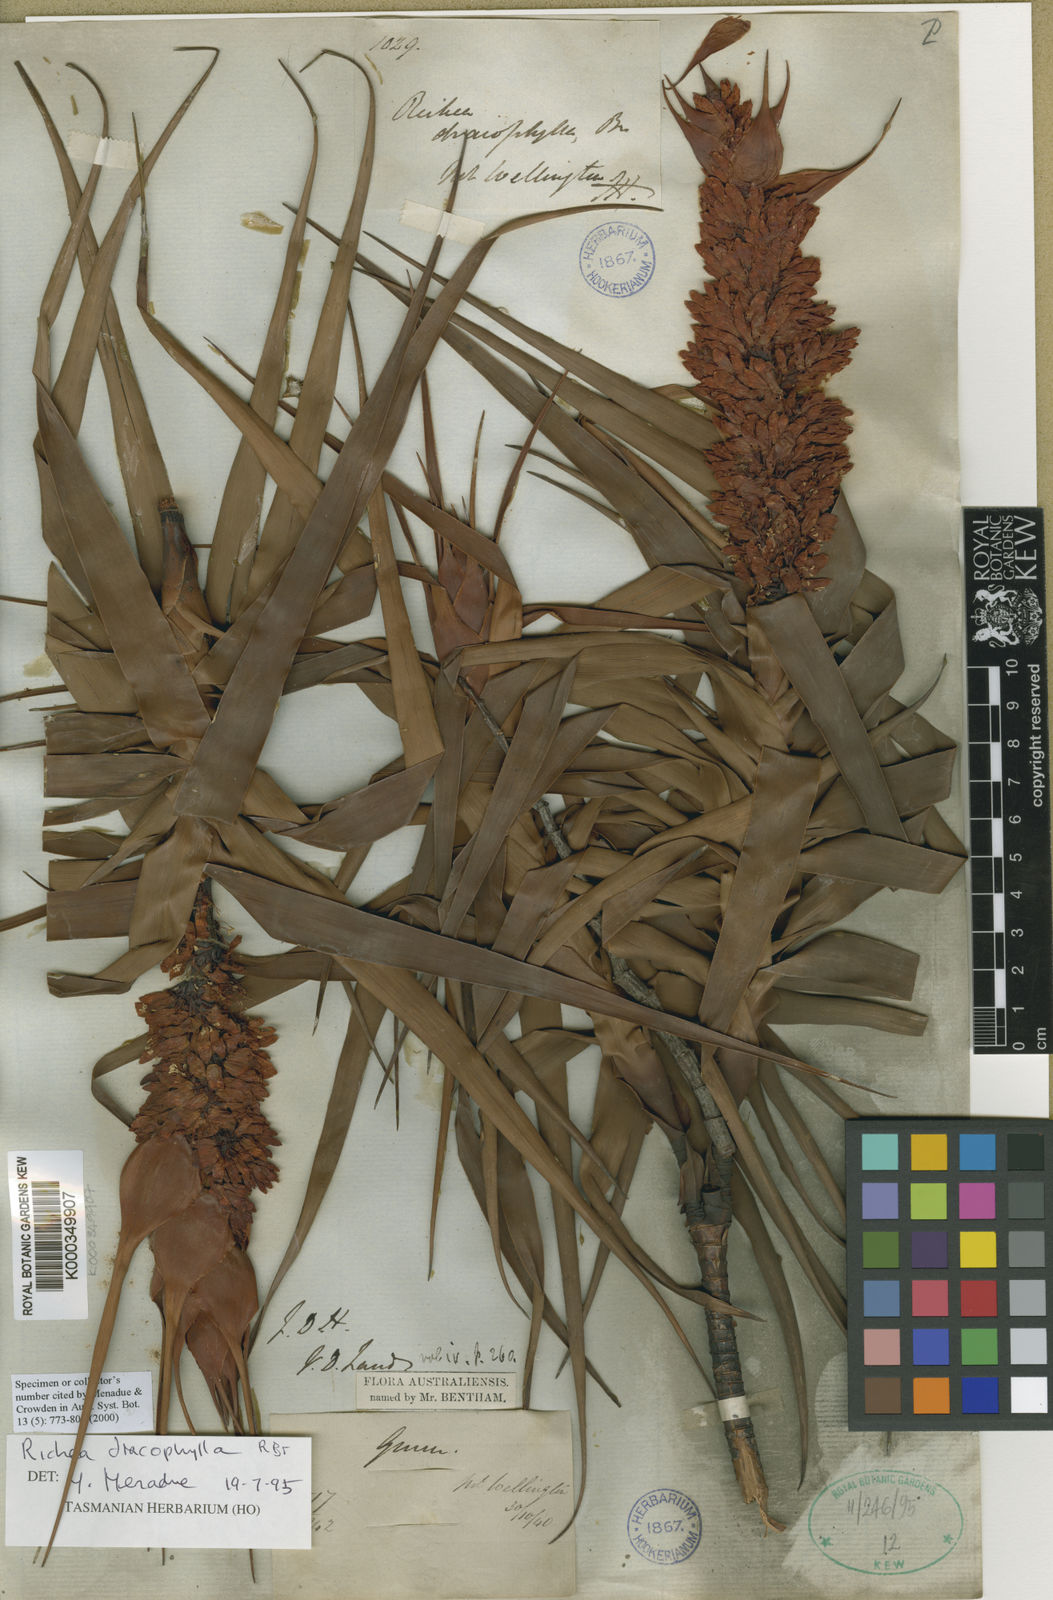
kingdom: Plantae
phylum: Tracheophyta
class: Magnoliopsida
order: Ericales
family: Ericaceae
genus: Dracophyllum
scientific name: Dracophyllum desgrazii
